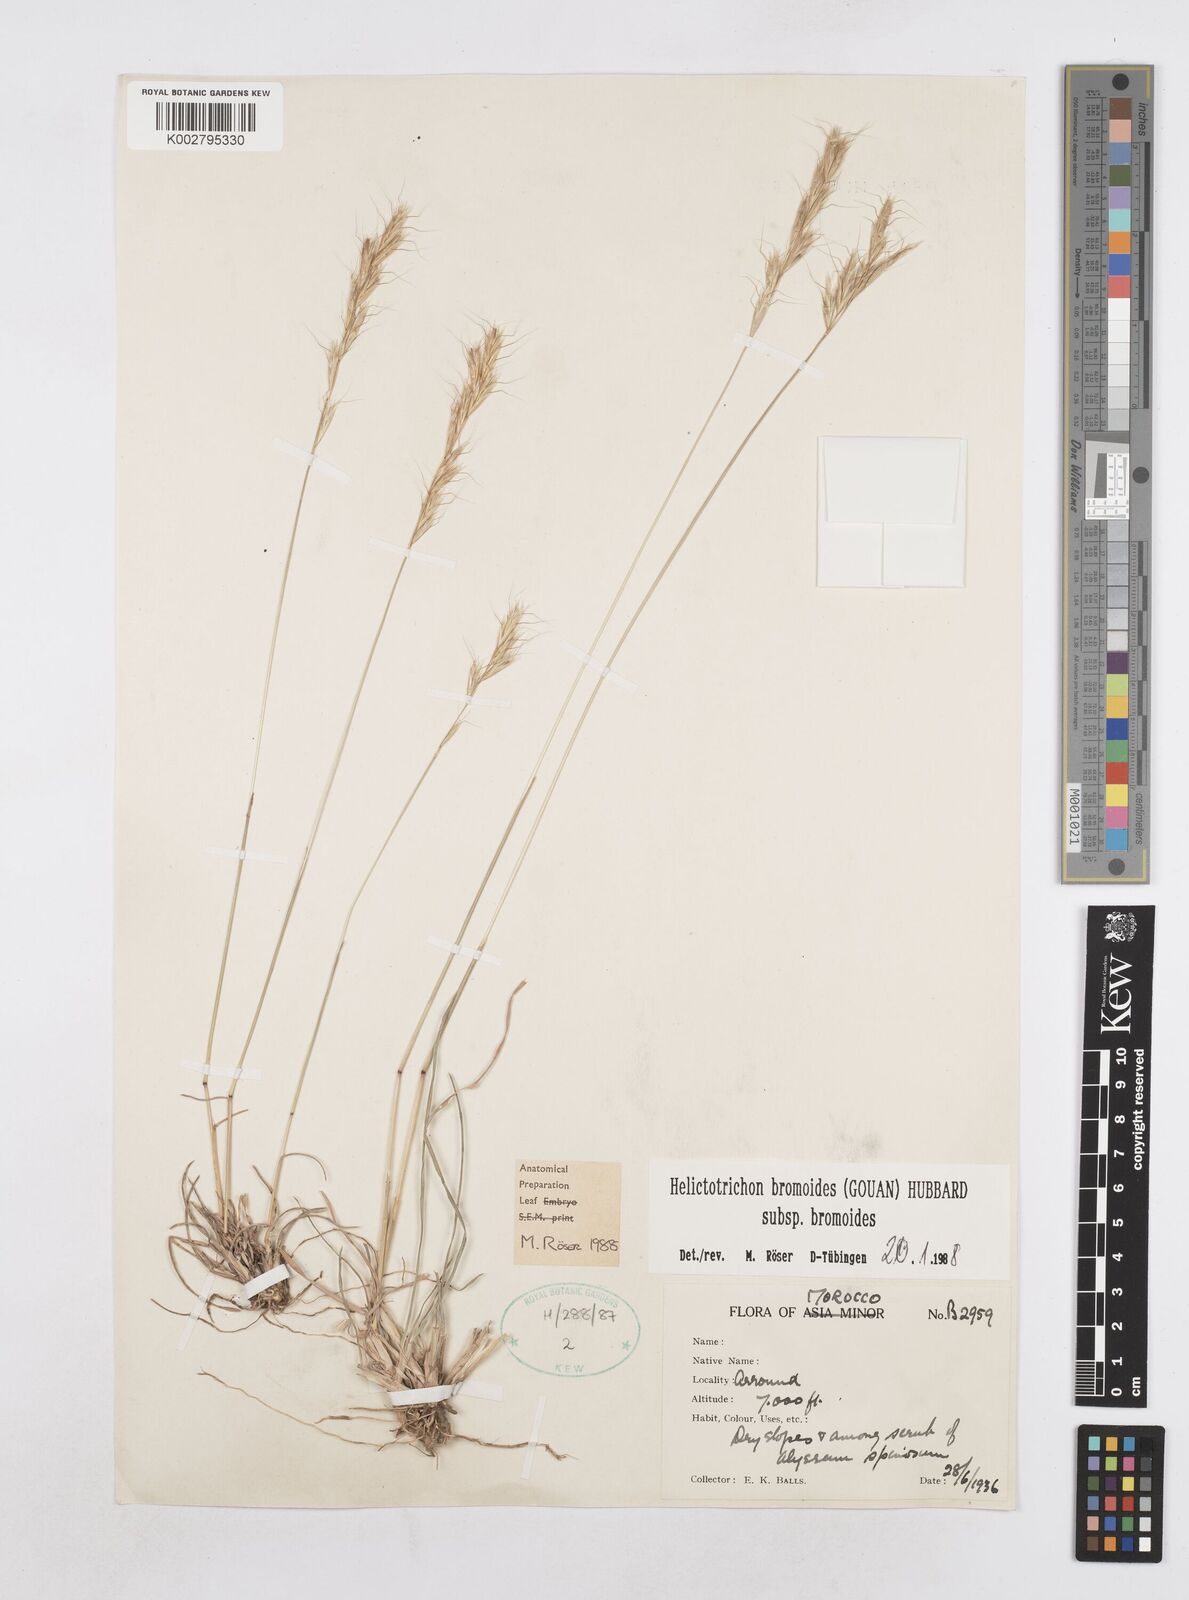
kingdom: Plantae
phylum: Tracheophyta
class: Liliopsida
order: Poales
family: Poaceae
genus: Helictochloa
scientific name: Helictochloa bromoides
